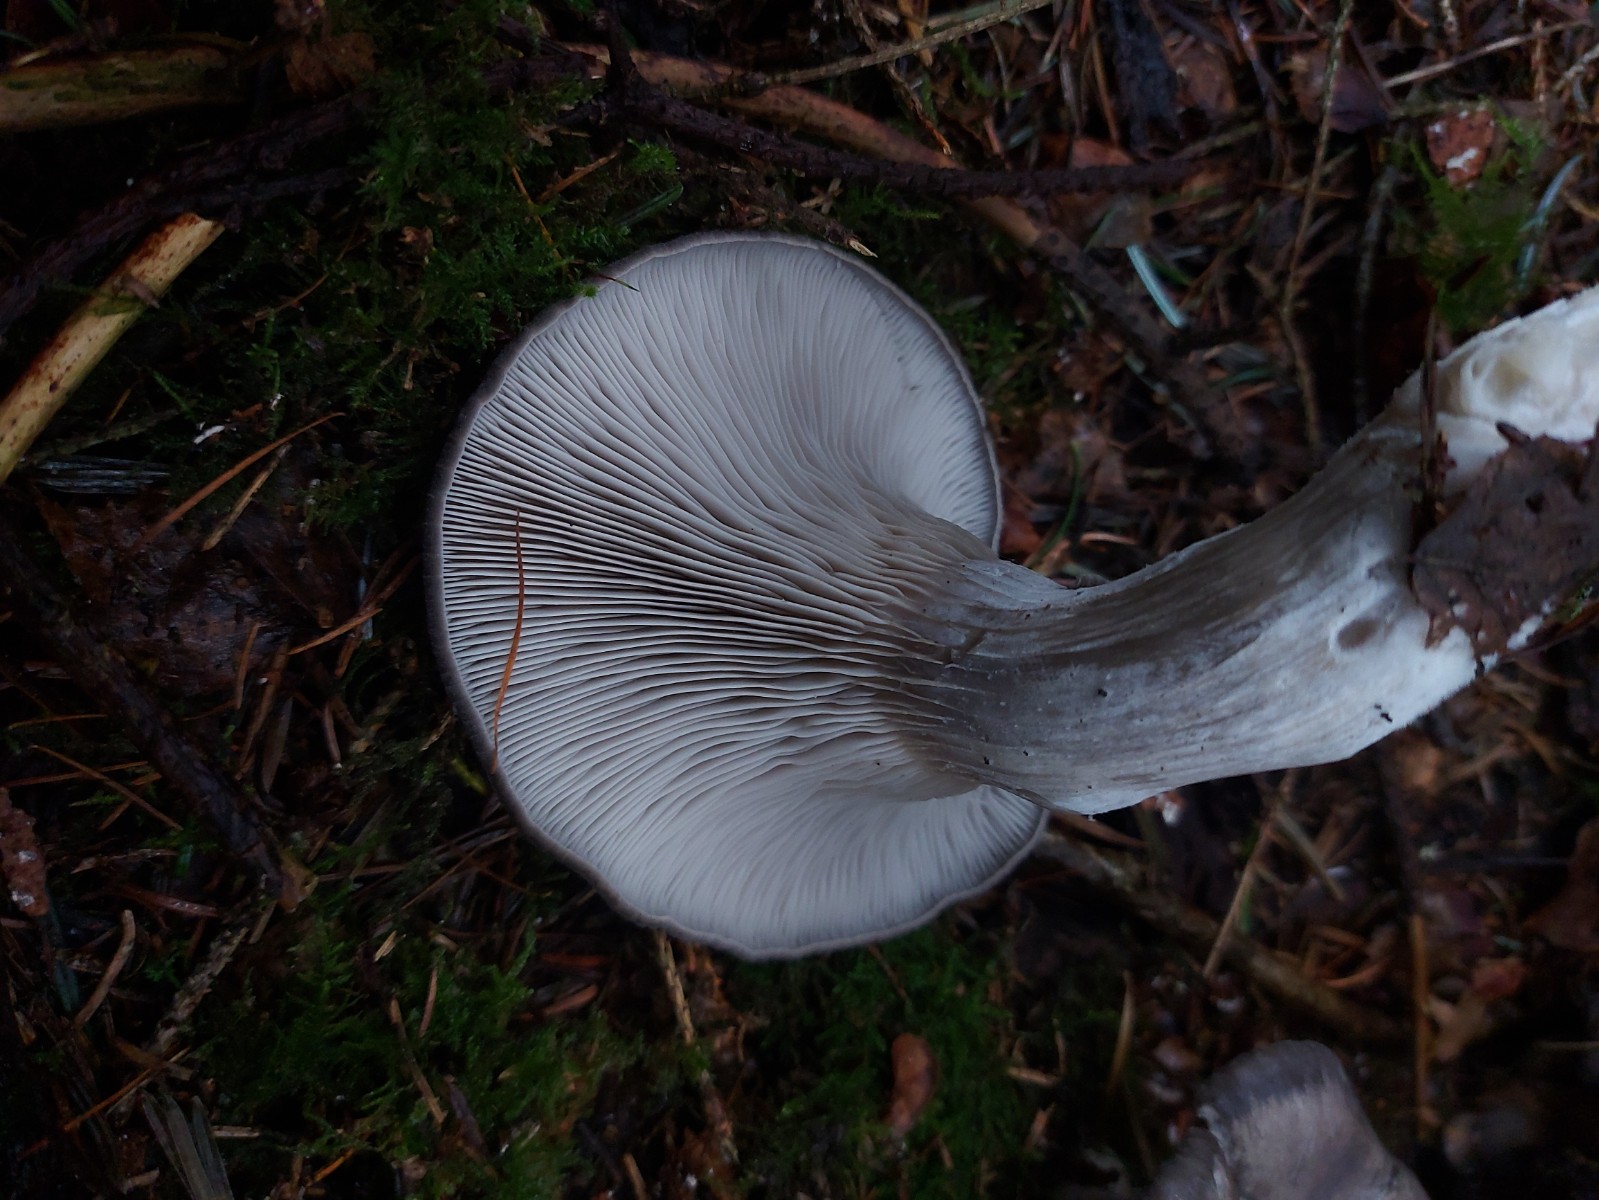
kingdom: Fungi
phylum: Basidiomycota
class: Agaricomycetes
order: Agaricales
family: Pleurotaceae
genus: Pleurotus
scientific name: Pleurotus ostreatus
